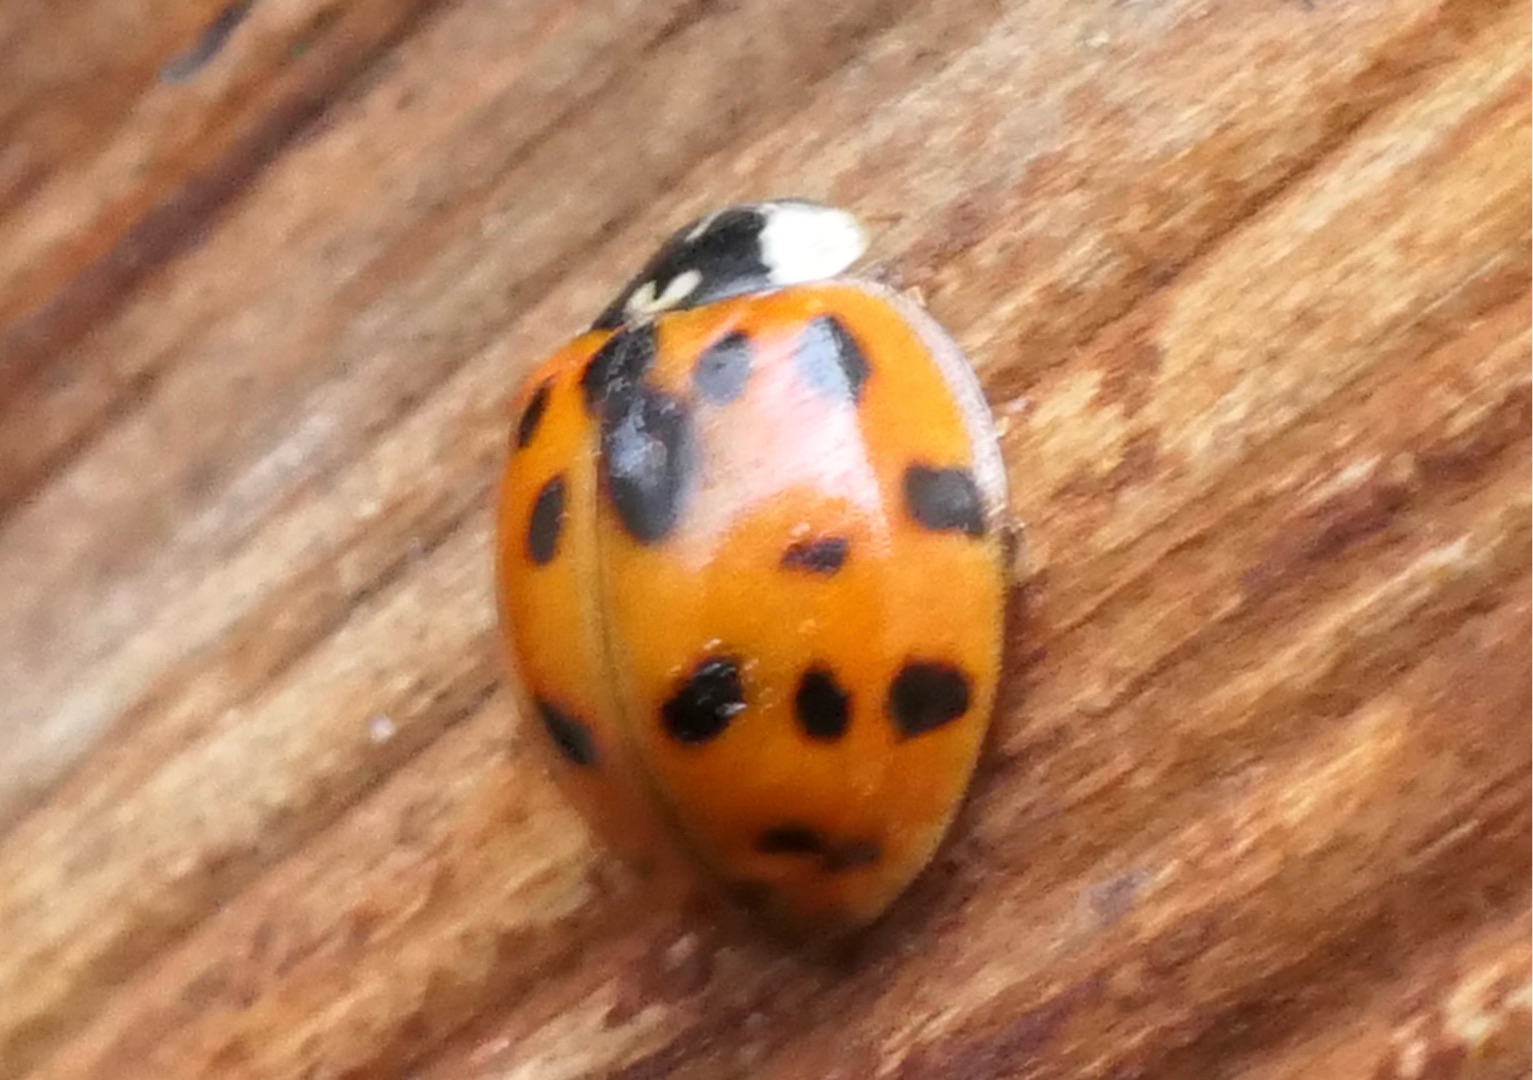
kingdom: Animalia
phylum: Arthropoda
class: Insecta
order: Coleoptera
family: Coccinellidae
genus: Harmonia
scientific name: Harmonia axyridis
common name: Harlekinmariehøne
